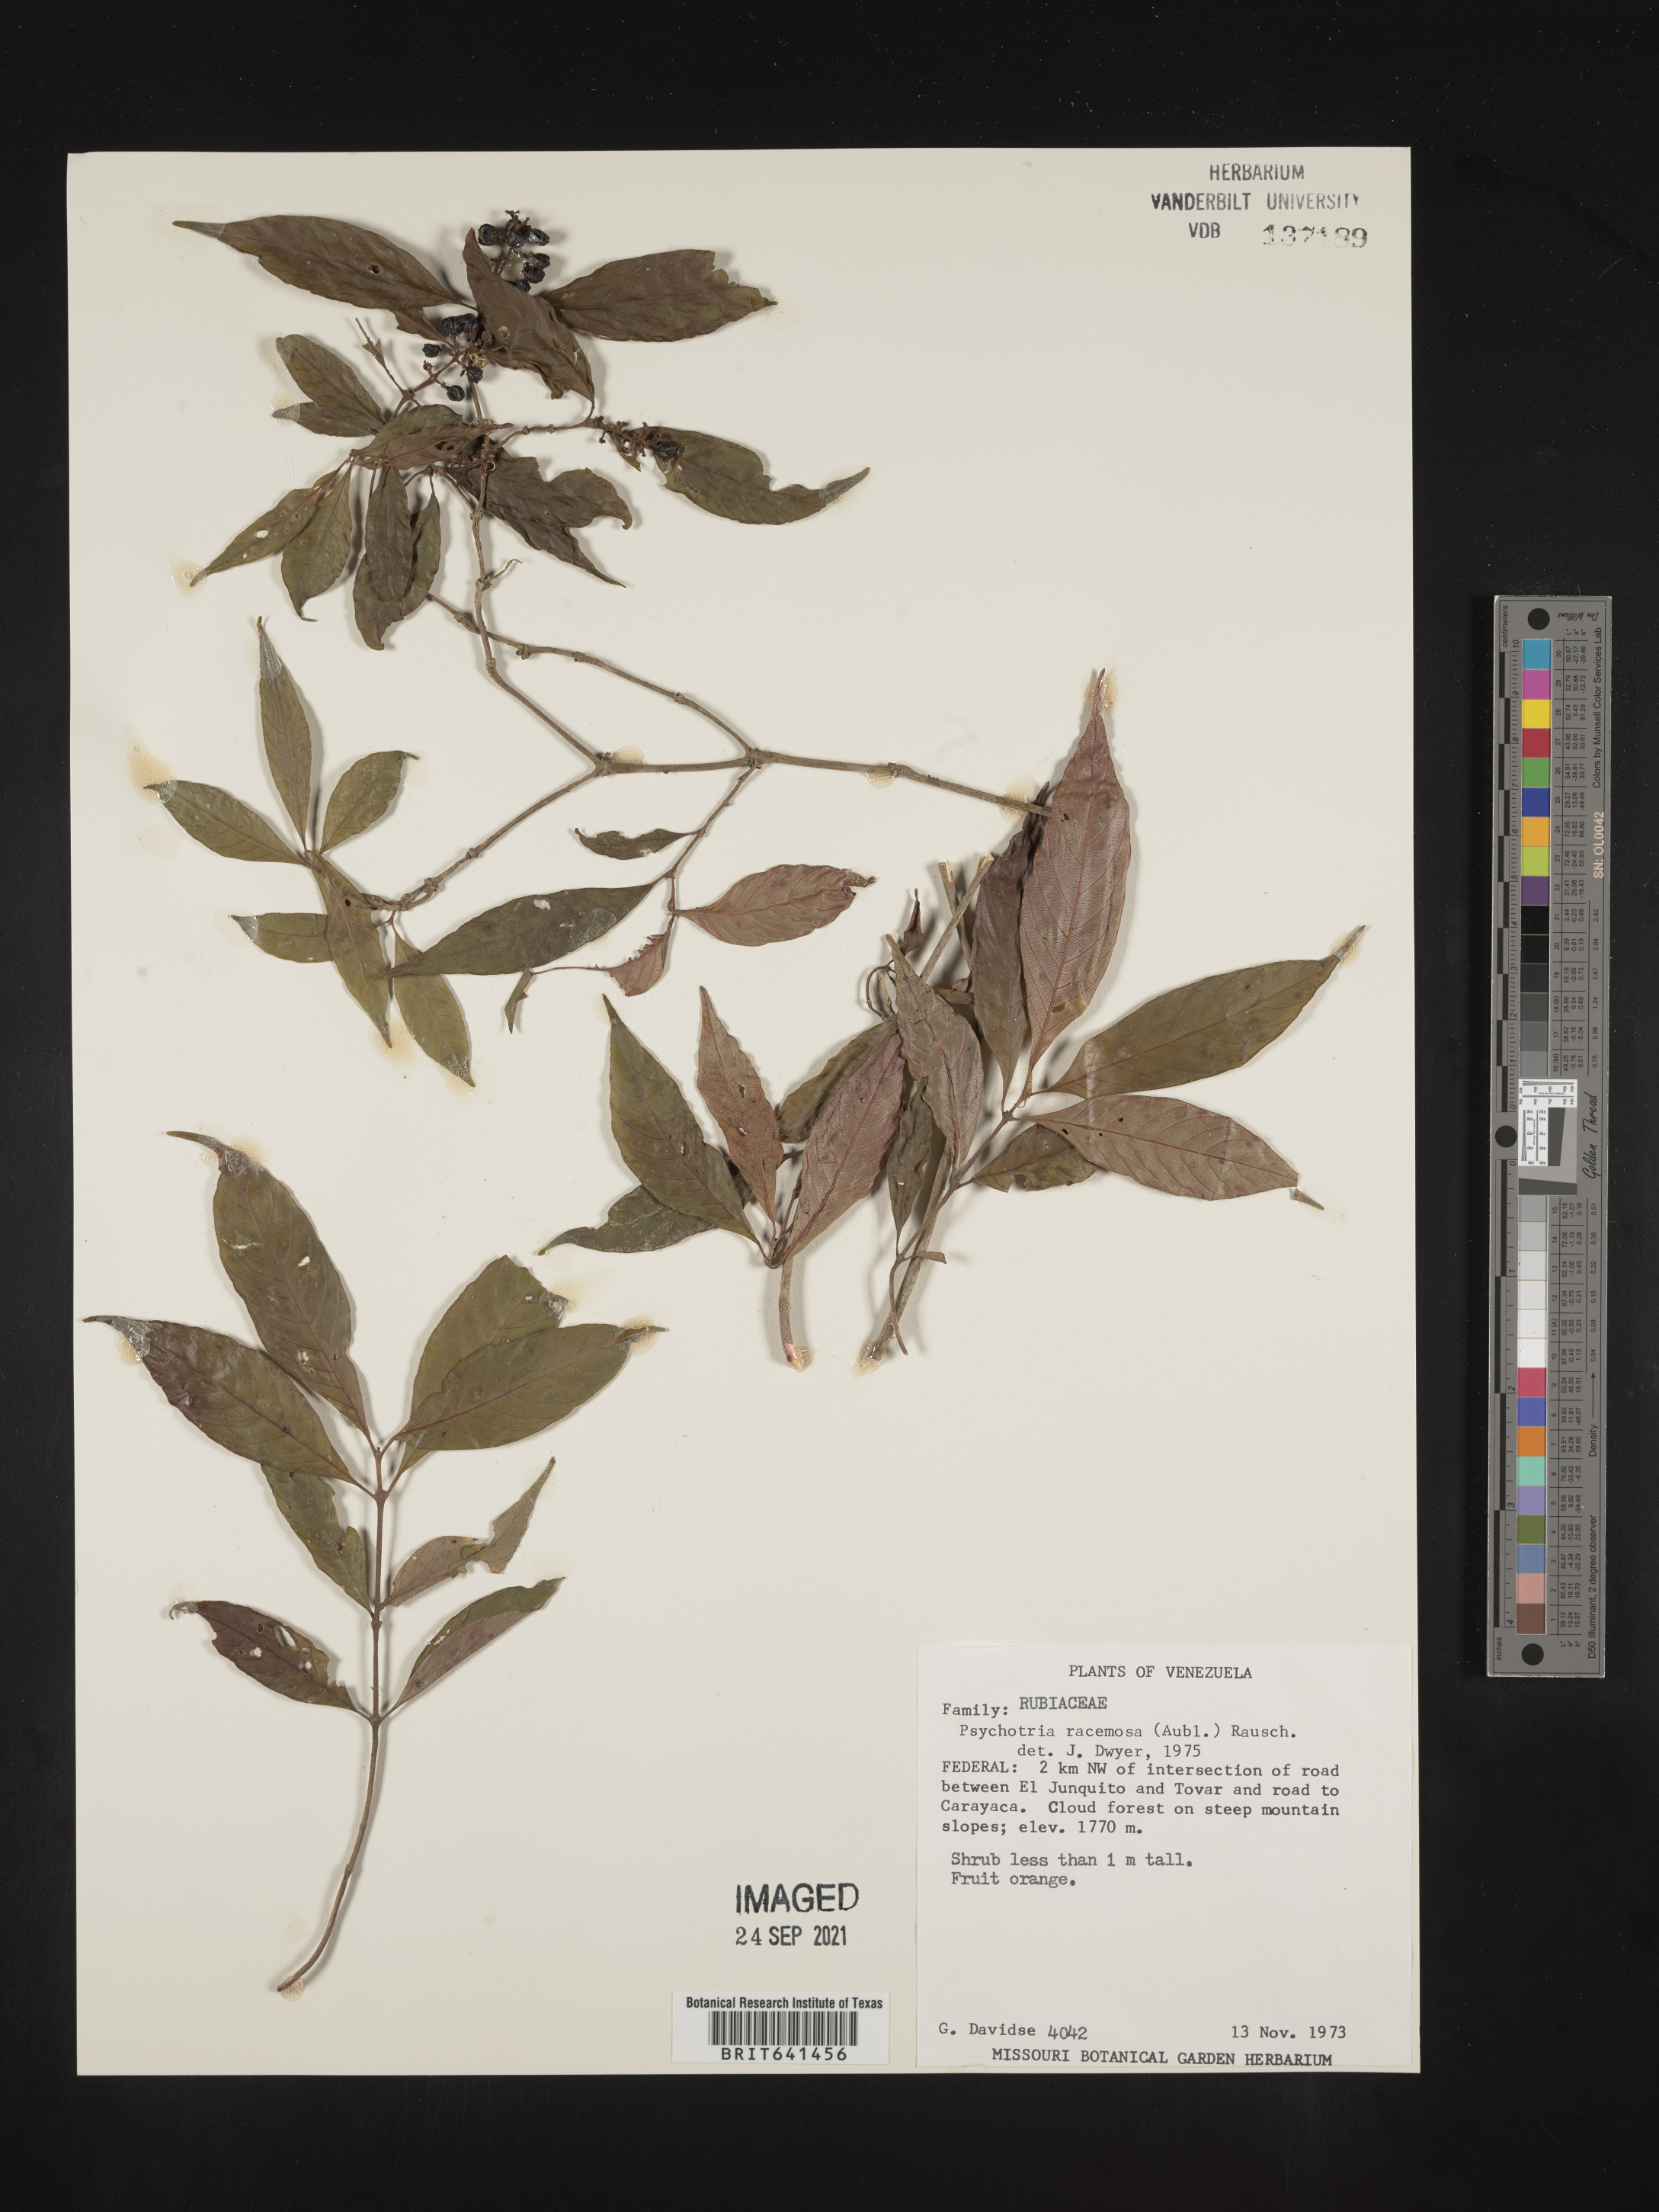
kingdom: Plantae
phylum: Tracheophyta
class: Magnoliopsida
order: Gentianales
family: Rubiaceae
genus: Psychotria
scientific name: Psychotria
